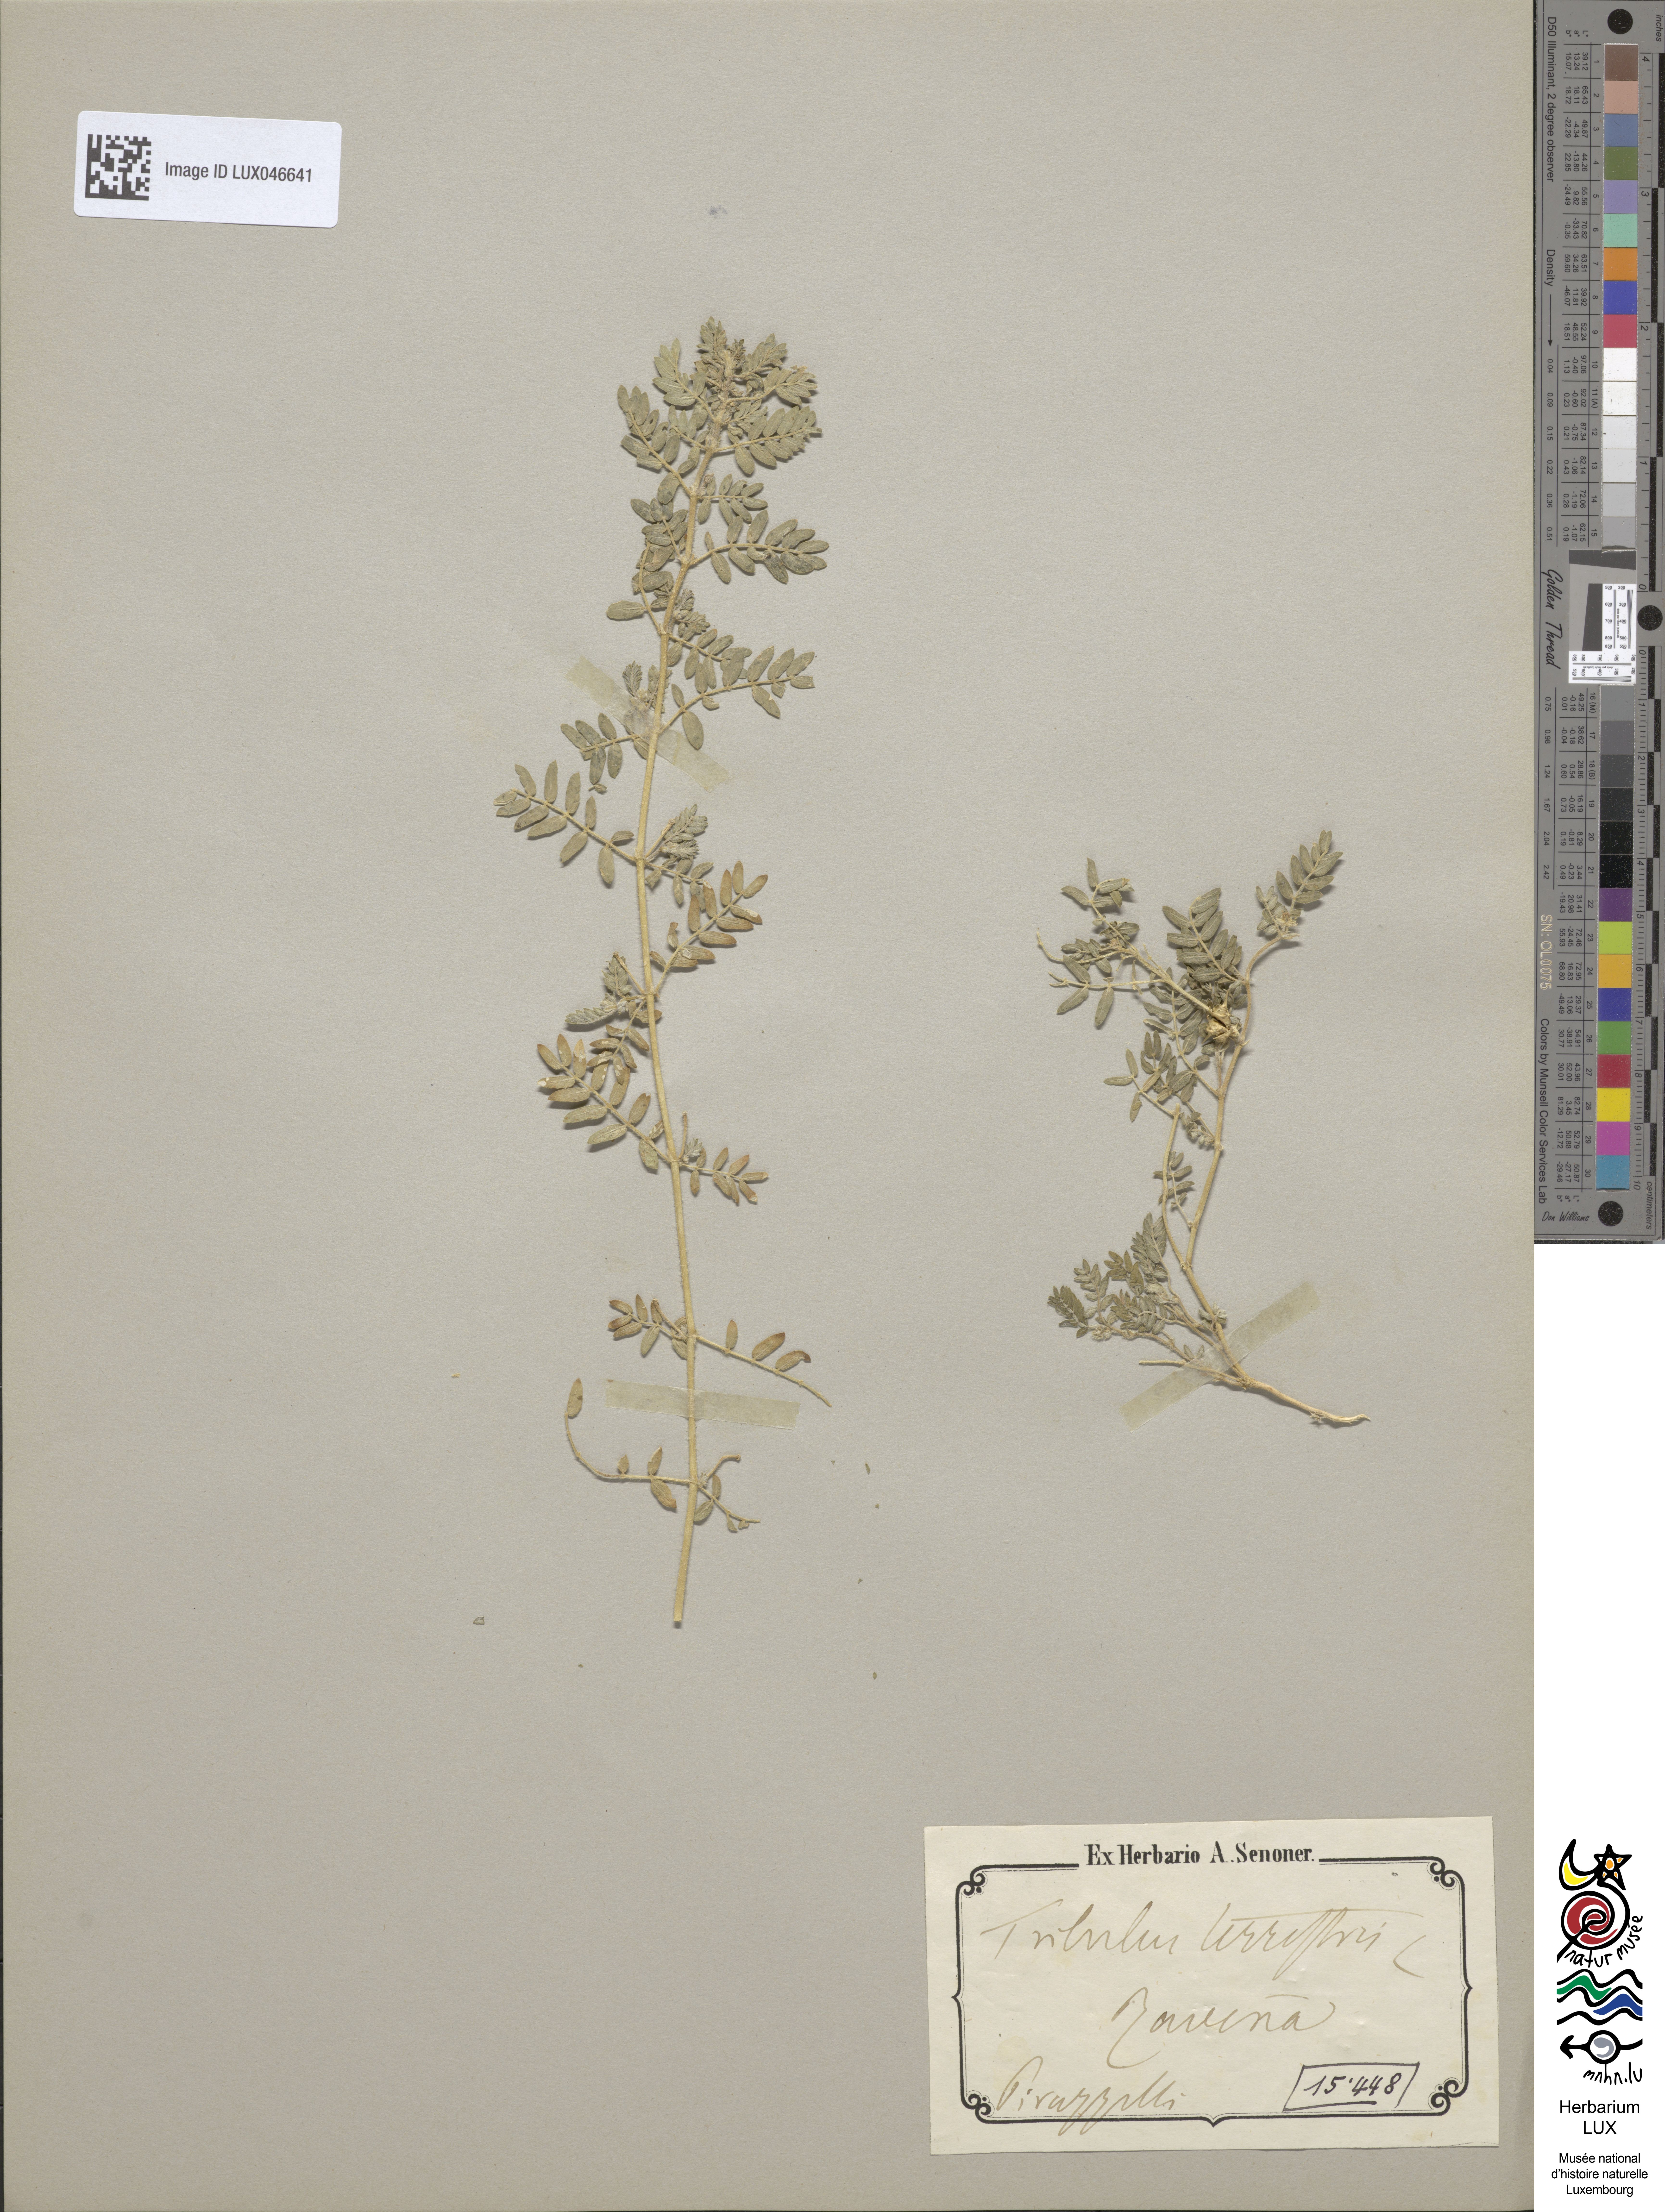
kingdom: Plantae
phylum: Tracheophyta
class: Magnoliopsida
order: Zygophyllales
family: Zygophyllaceae
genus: Tribulus
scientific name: Tribulus terrestris
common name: Puncturevine
